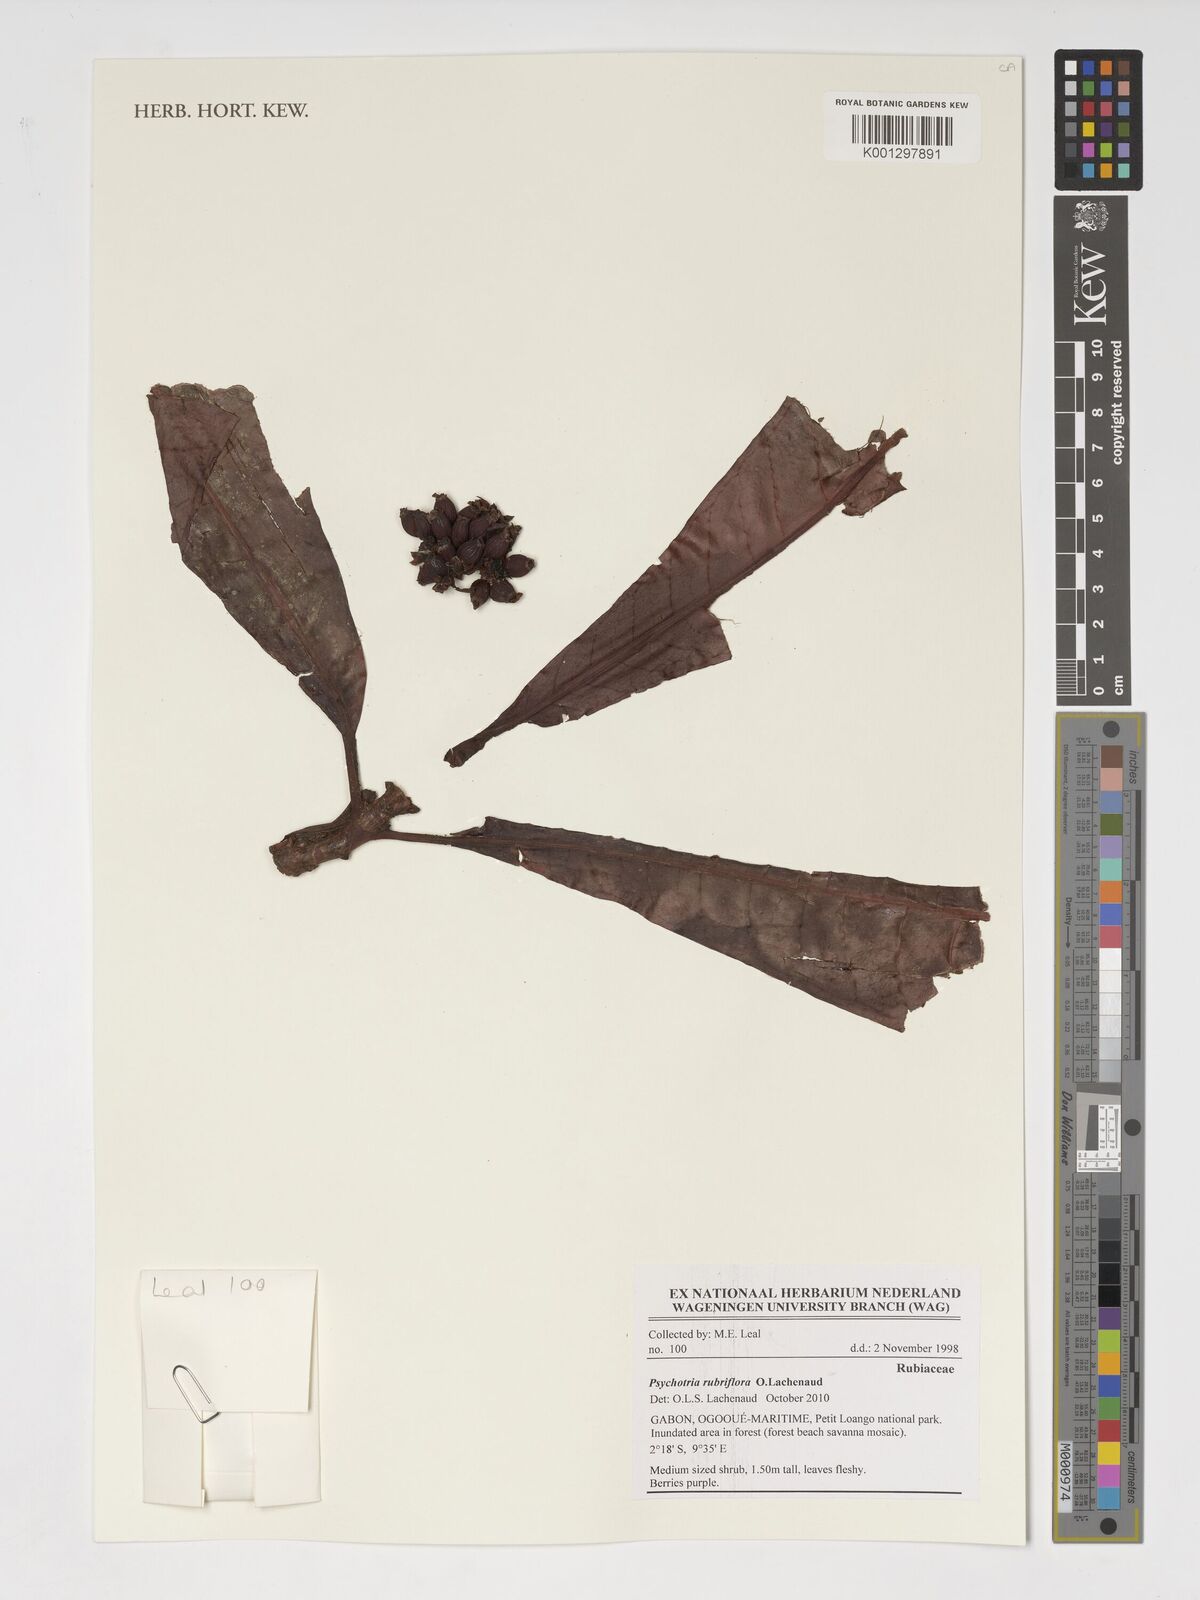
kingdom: Plantae
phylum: Tracheophyta
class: Magnoliopsida
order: Gentianales
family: Rubiaceae
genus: Psychotria
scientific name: Psychotria rubriflora
